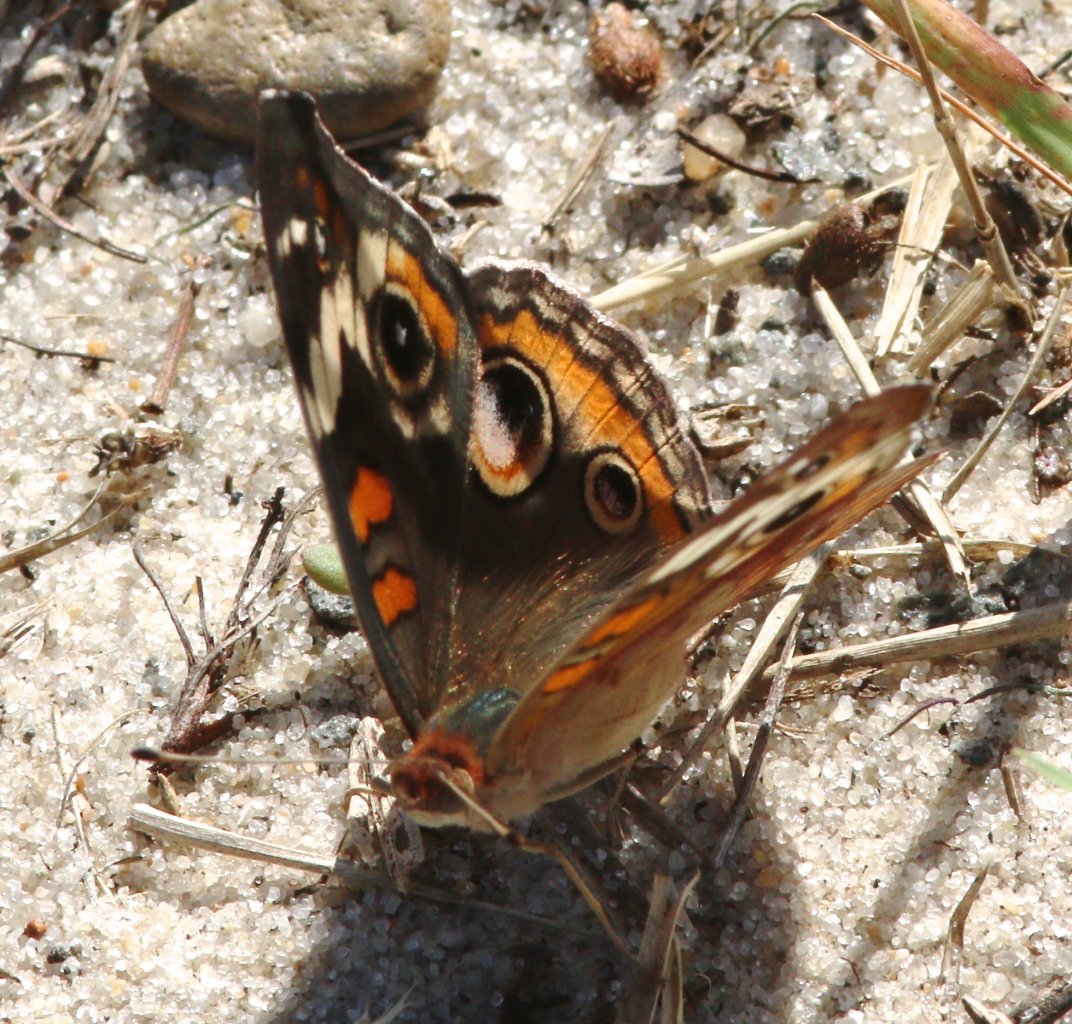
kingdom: Animalia
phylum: Arthropoda
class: Insecta
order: Lepidoptera
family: Nymphalidae
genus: Junonia
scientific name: Junonia coenia
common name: Common Buckeye
